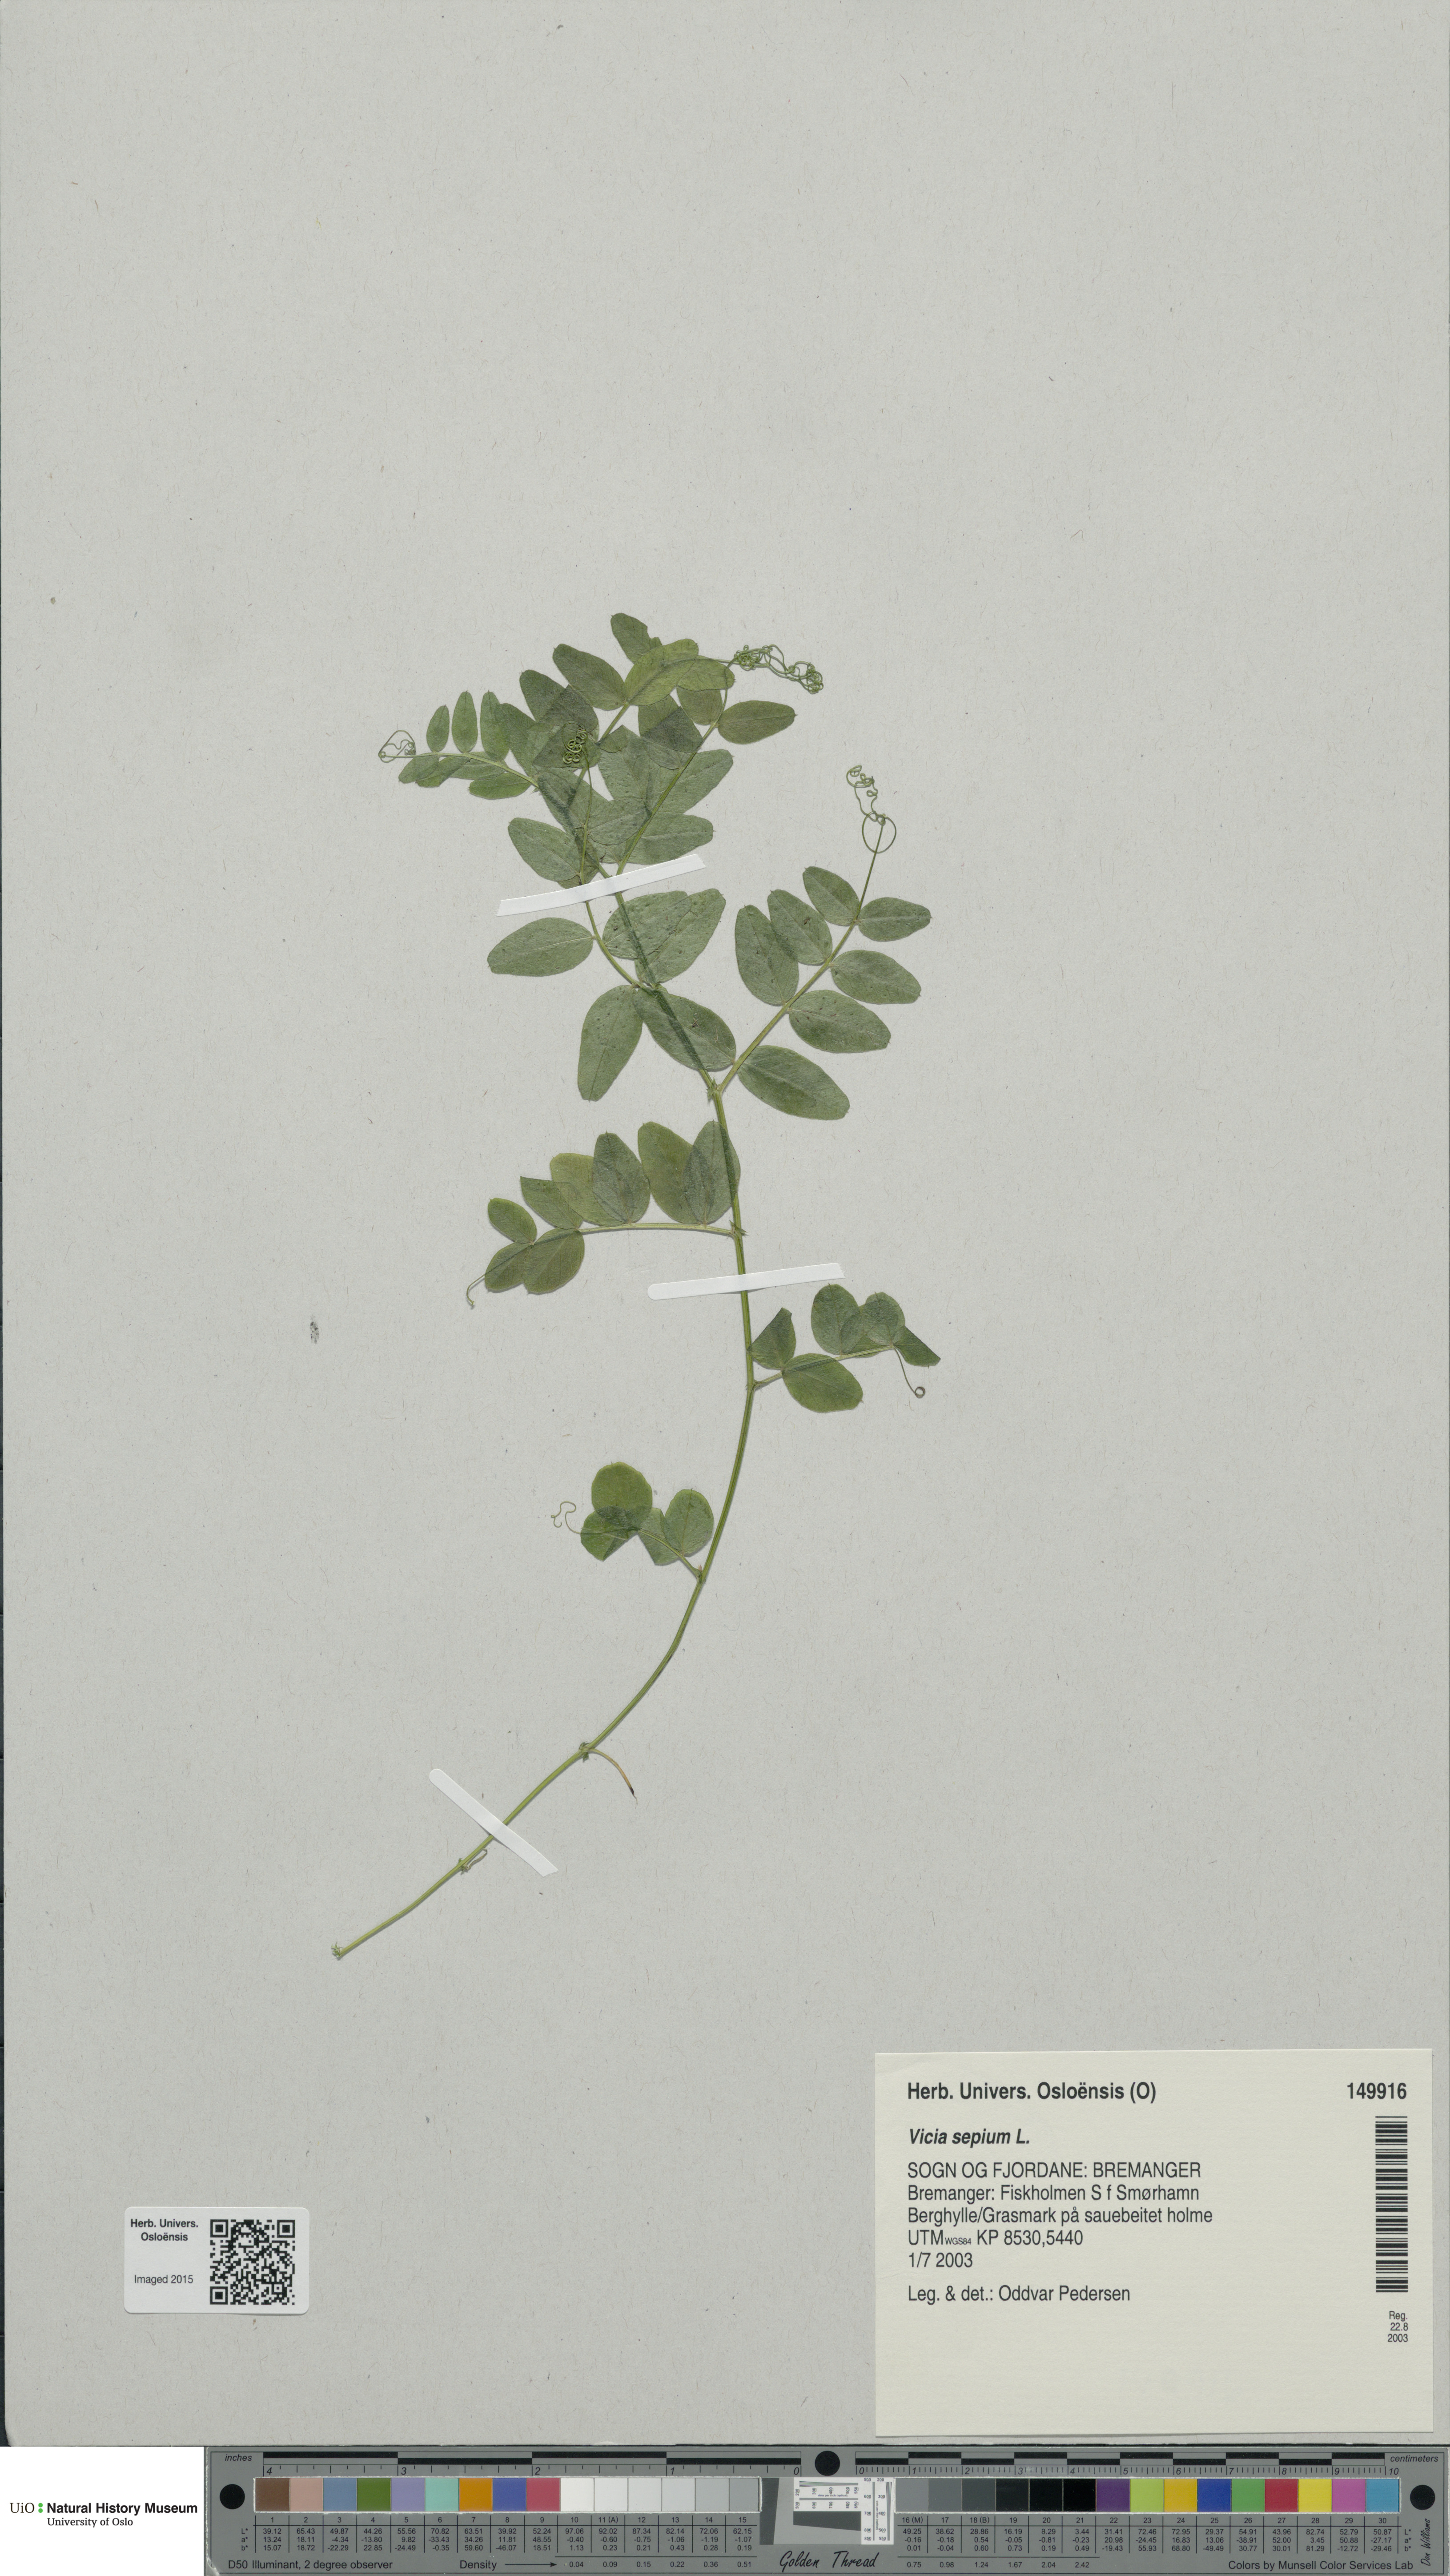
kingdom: Plantae
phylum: Tracheophyta
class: Magnoliopsida
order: Fabales
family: Fabaceae
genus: Vicia
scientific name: Vicia sepium
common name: Bush vetch
